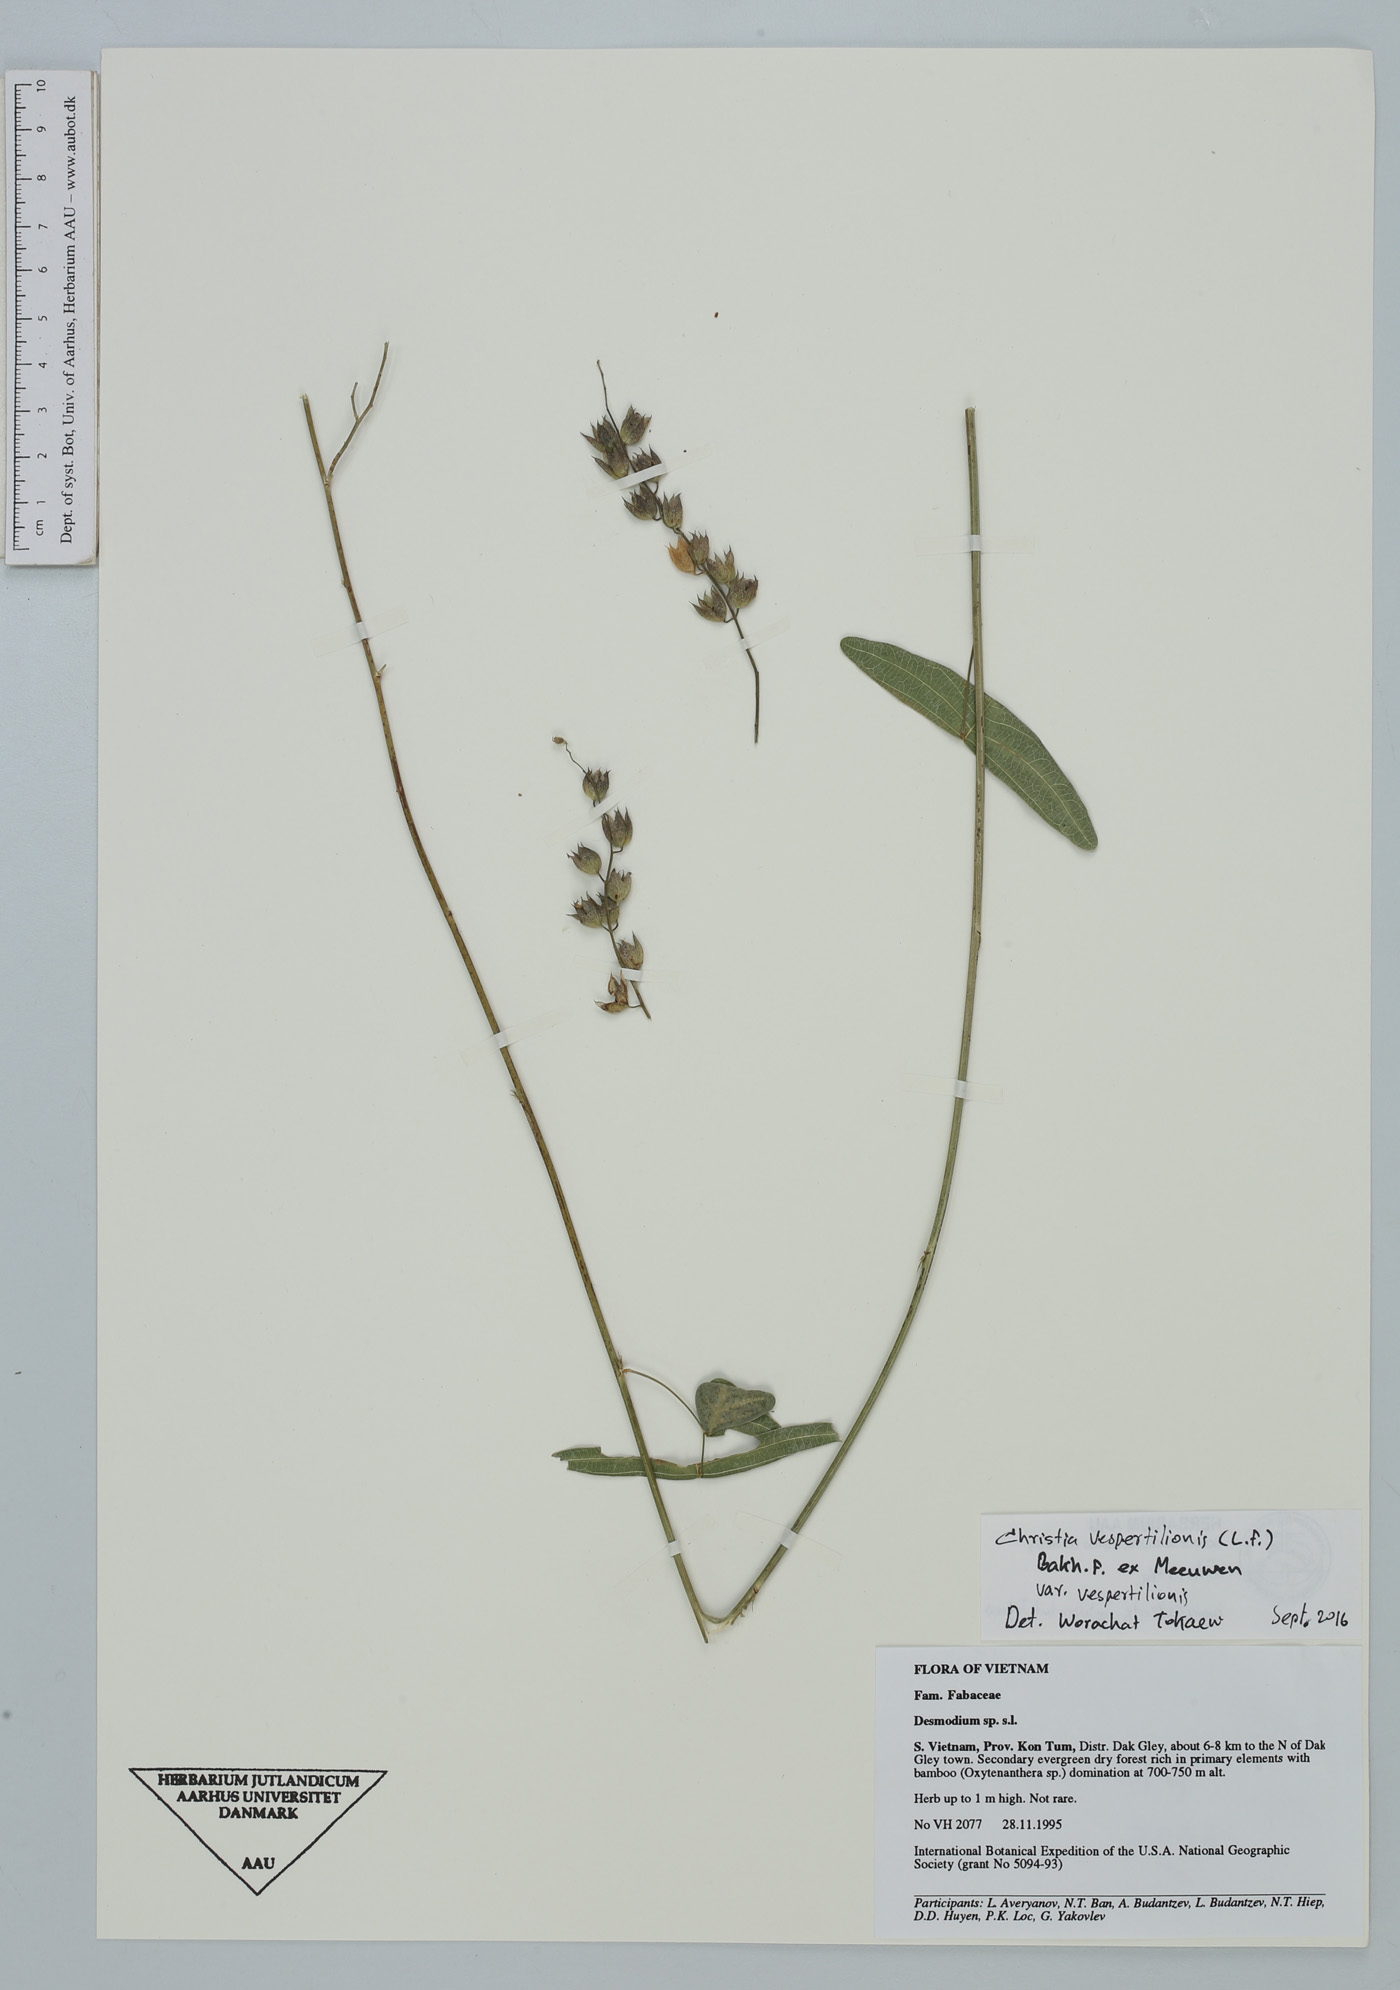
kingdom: Plantae
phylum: Tracheophyta
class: Magnoliopsida
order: Fabales
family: Fabaceae
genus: Christia
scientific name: Christia vespertilionis
